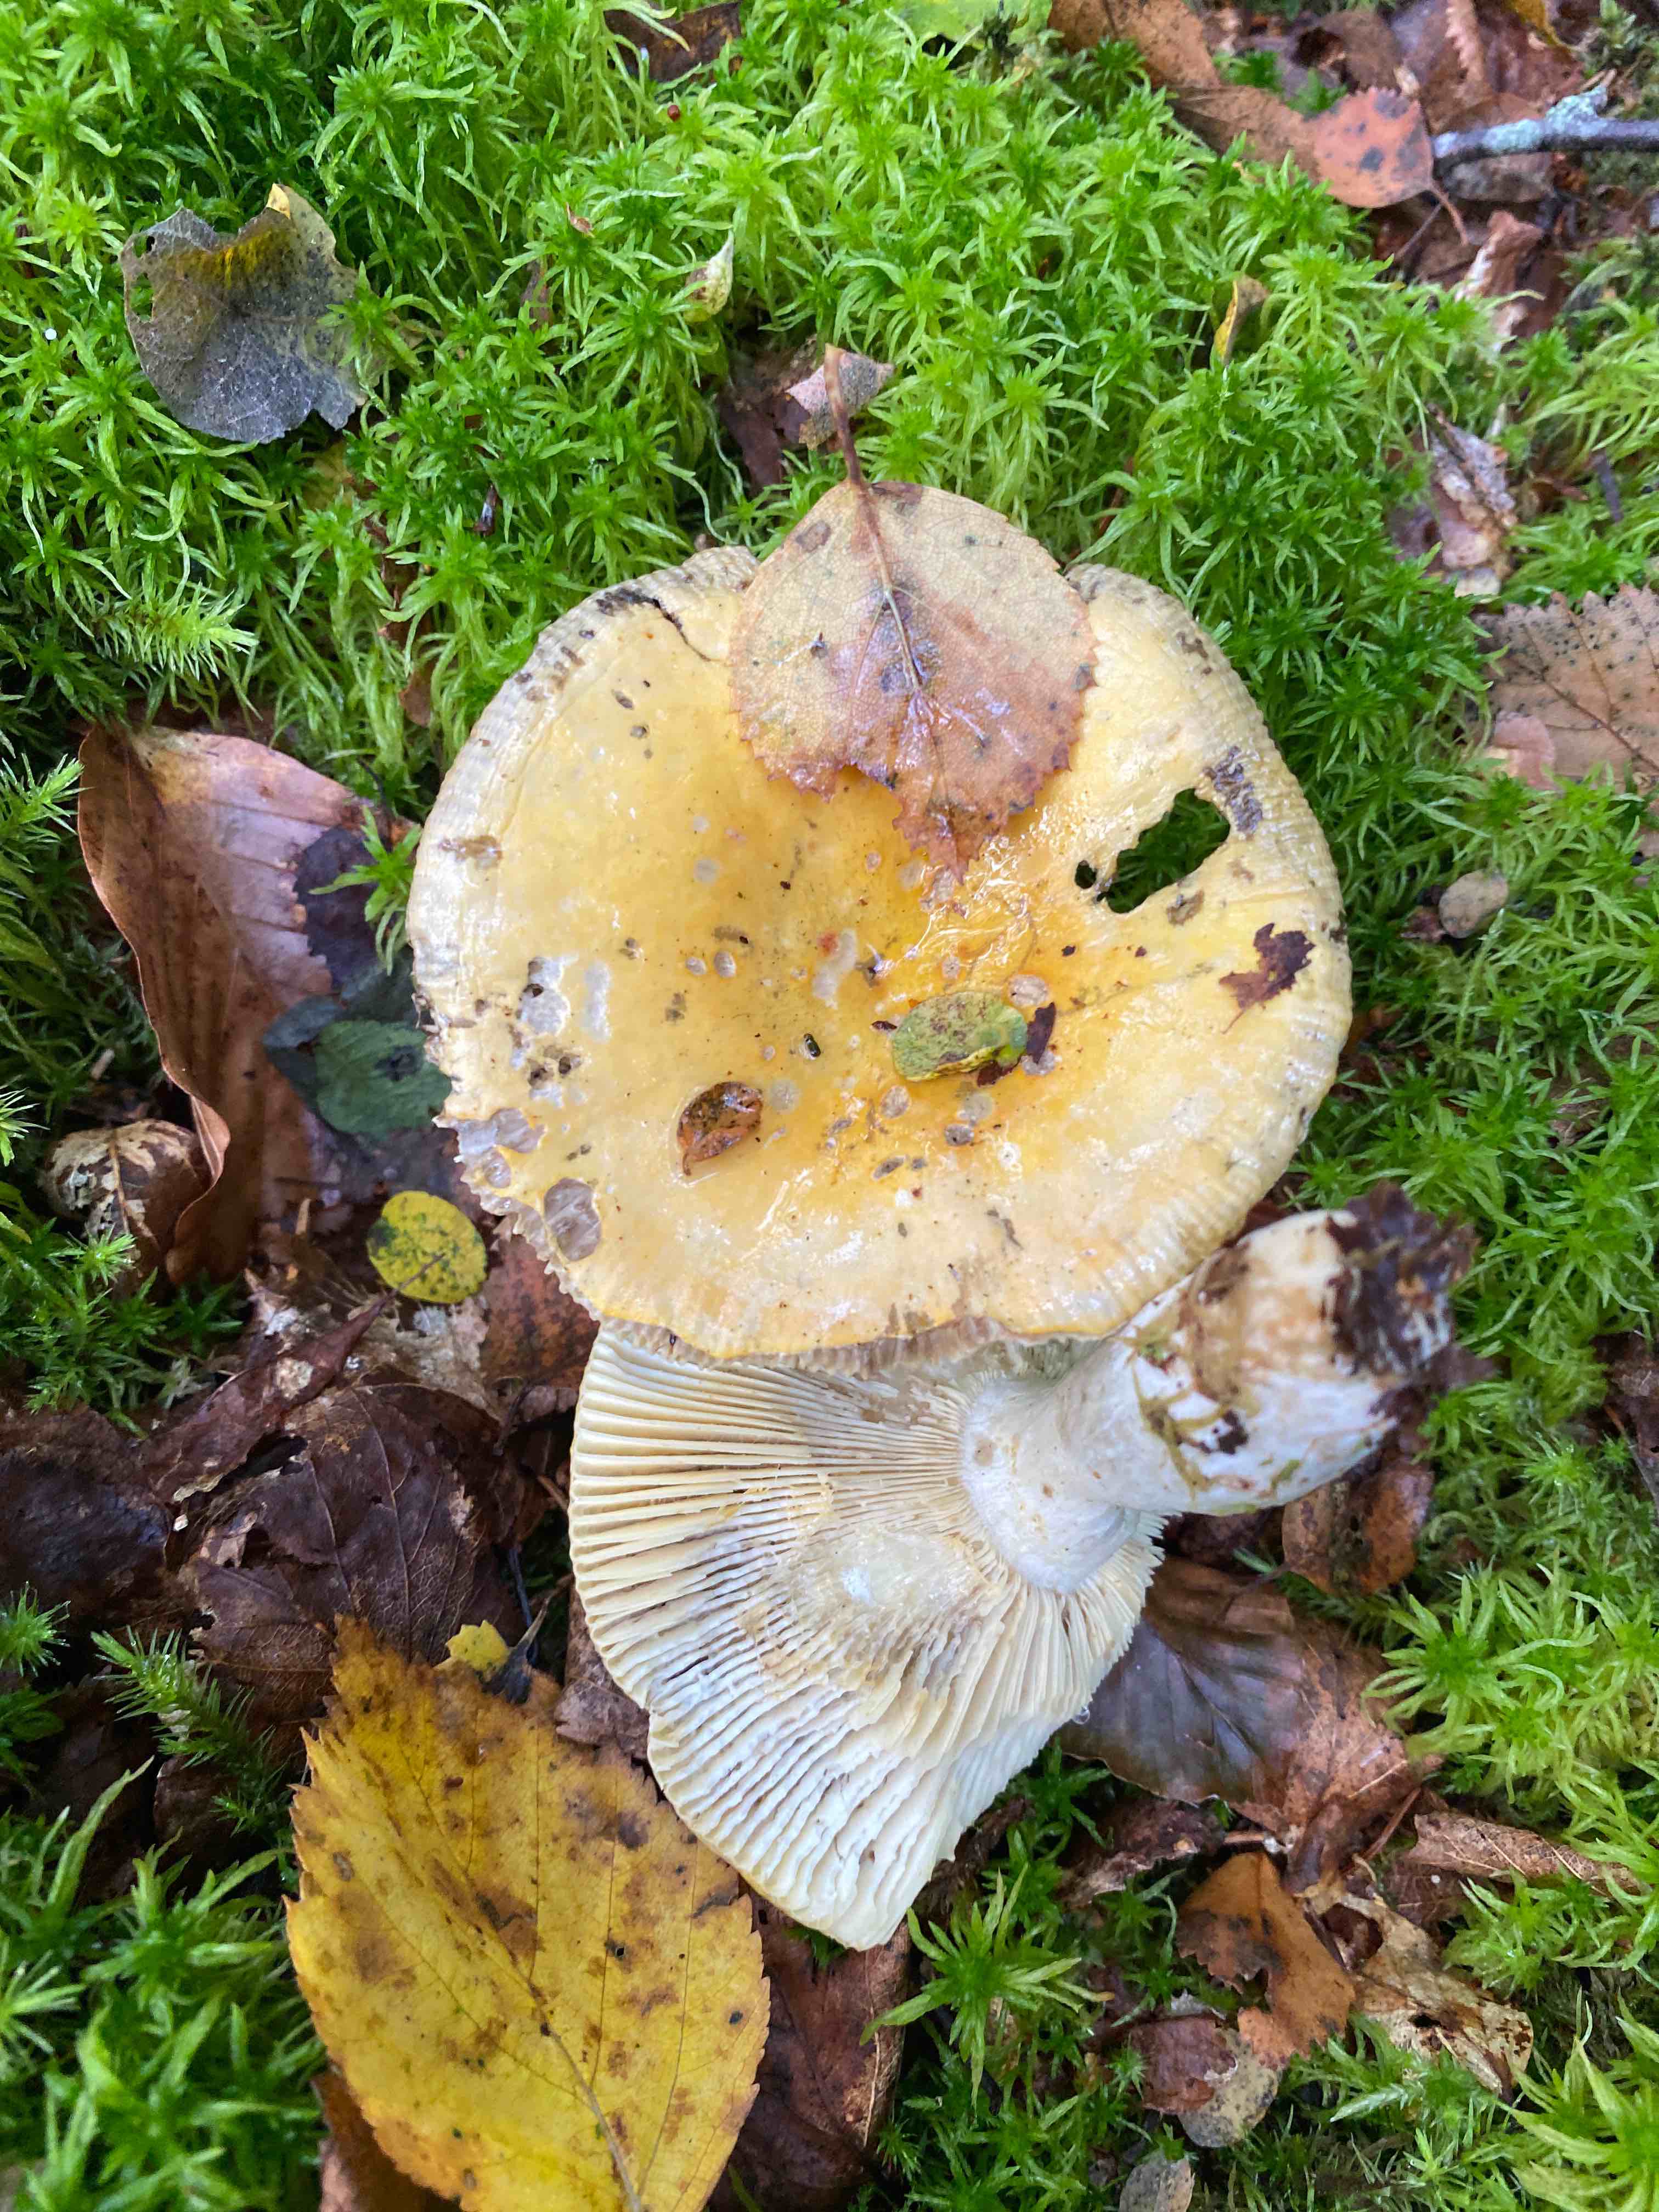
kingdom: Fungi
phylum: Basidiomycota
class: Agaricomycetes
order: Russulales
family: Russulaceae
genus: Russula
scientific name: Russula claroflava
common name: birke-skørhat
